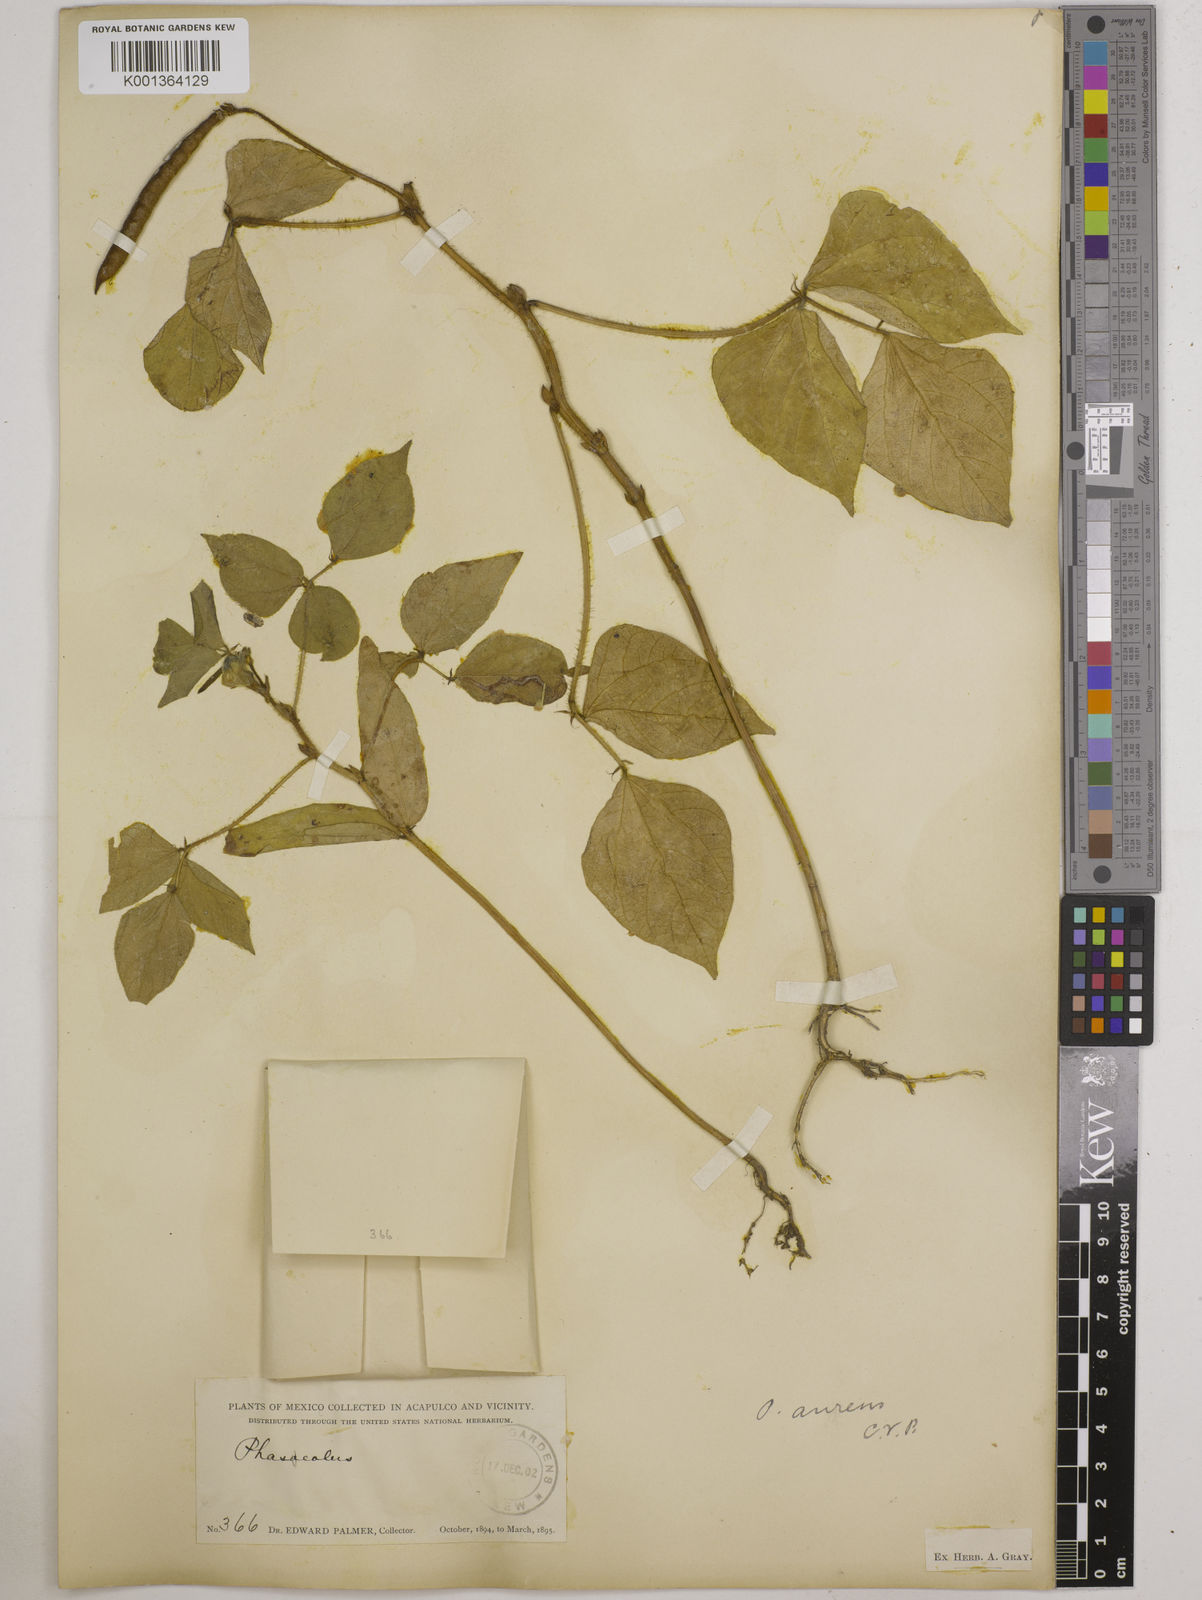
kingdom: Plantae
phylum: Tracheophyta
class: Magnoliopsida
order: Fabales
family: Fabaceae
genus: Vigna
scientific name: Vigna radiata
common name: Mung-bean
